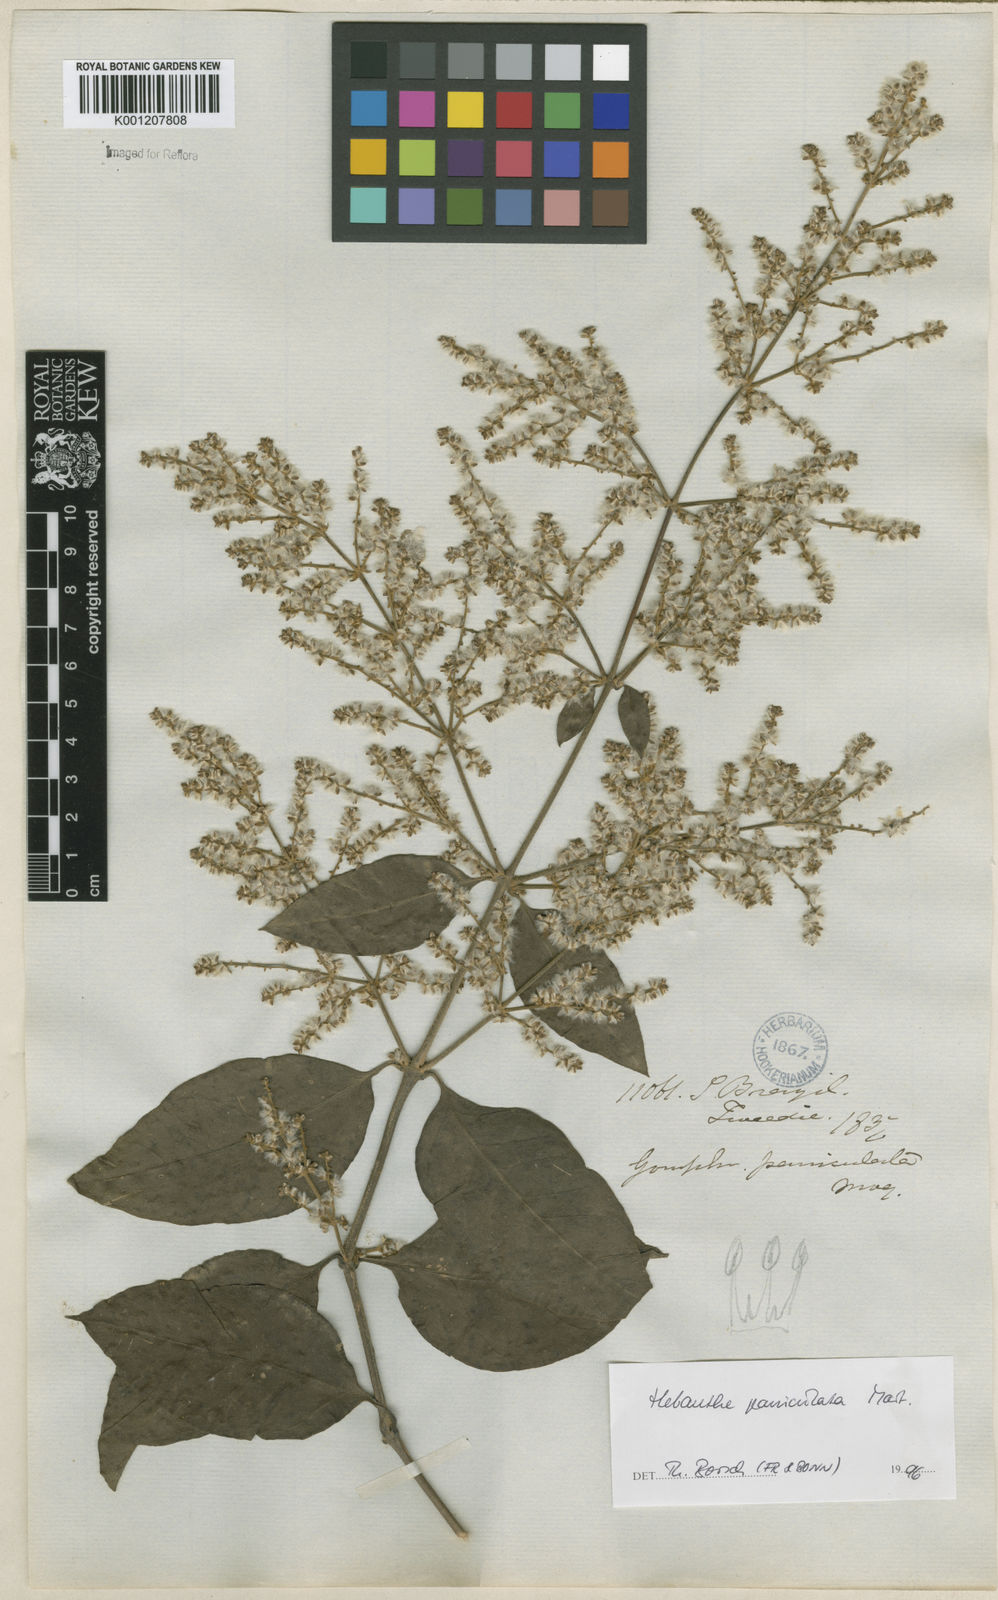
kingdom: Plantae
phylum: Tracheophyta
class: Magnoliopsida
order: Caryophyllales
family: Amaranthaceae
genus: Hebanthe
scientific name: Hebanthe erianthos
